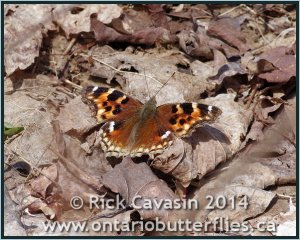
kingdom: Animalia
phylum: Arthropoda
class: Insecta
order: Lepidoptera
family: Nymphalidae
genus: Polygonia
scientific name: Polygonia vaualbum
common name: Compton Tortoiseshell
